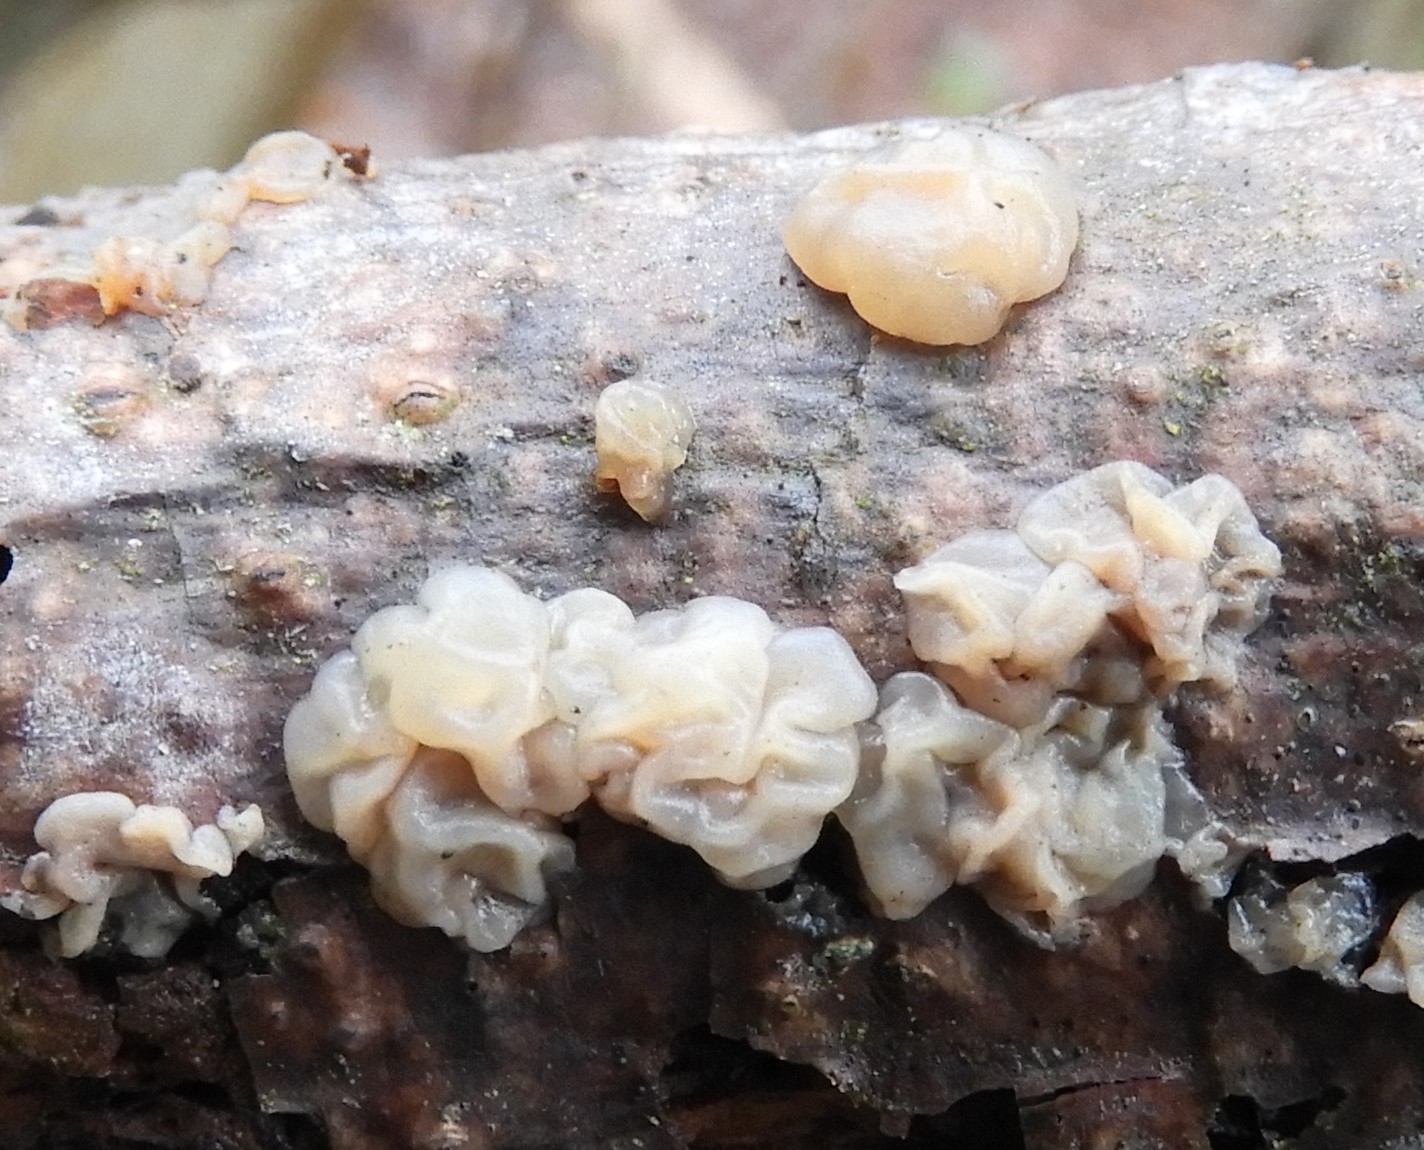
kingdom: Fungi
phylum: Basidiomycota
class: Dacrymycetes
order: Dacrymycetales
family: Dacrymycetaceae
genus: Dacrymyces
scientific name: Dacrymyces lacrymalis
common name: rynket tåresvamp
